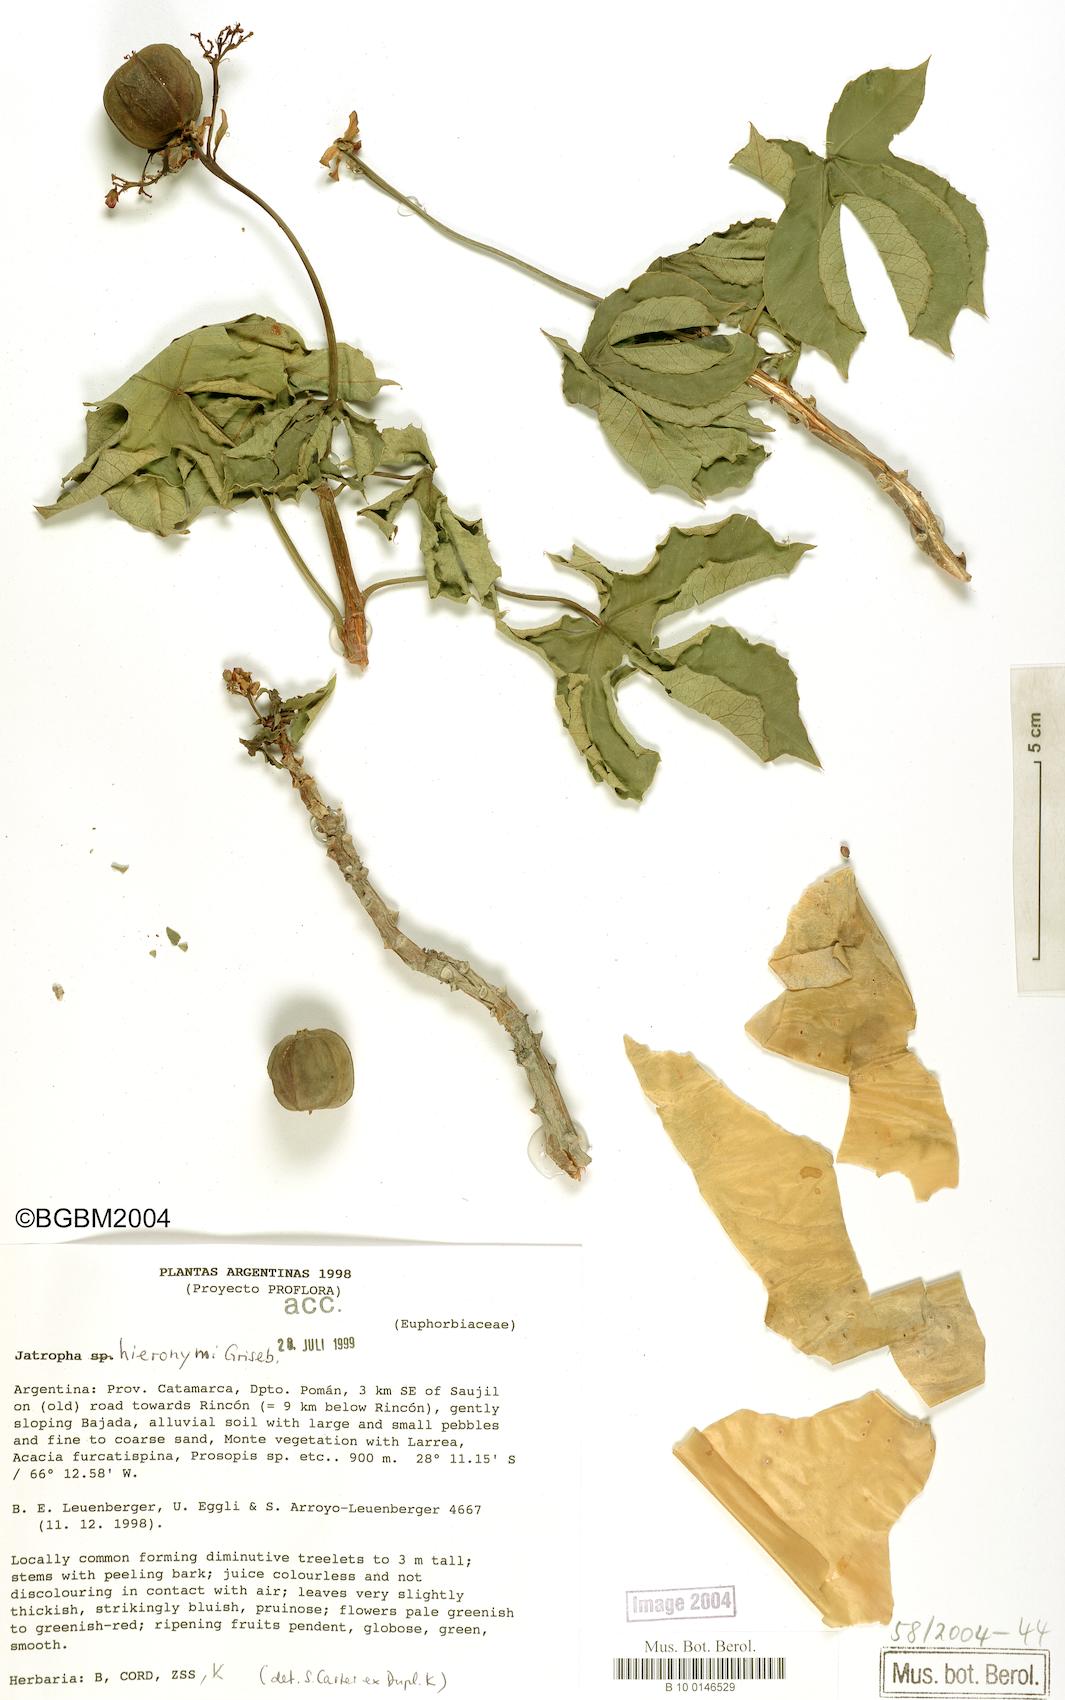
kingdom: Plantae
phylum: Tracheophyta
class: Magnoliopsida
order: Malpighiales
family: Euphorbiaceae
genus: Jatropha
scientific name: Jatropha hieronymi
